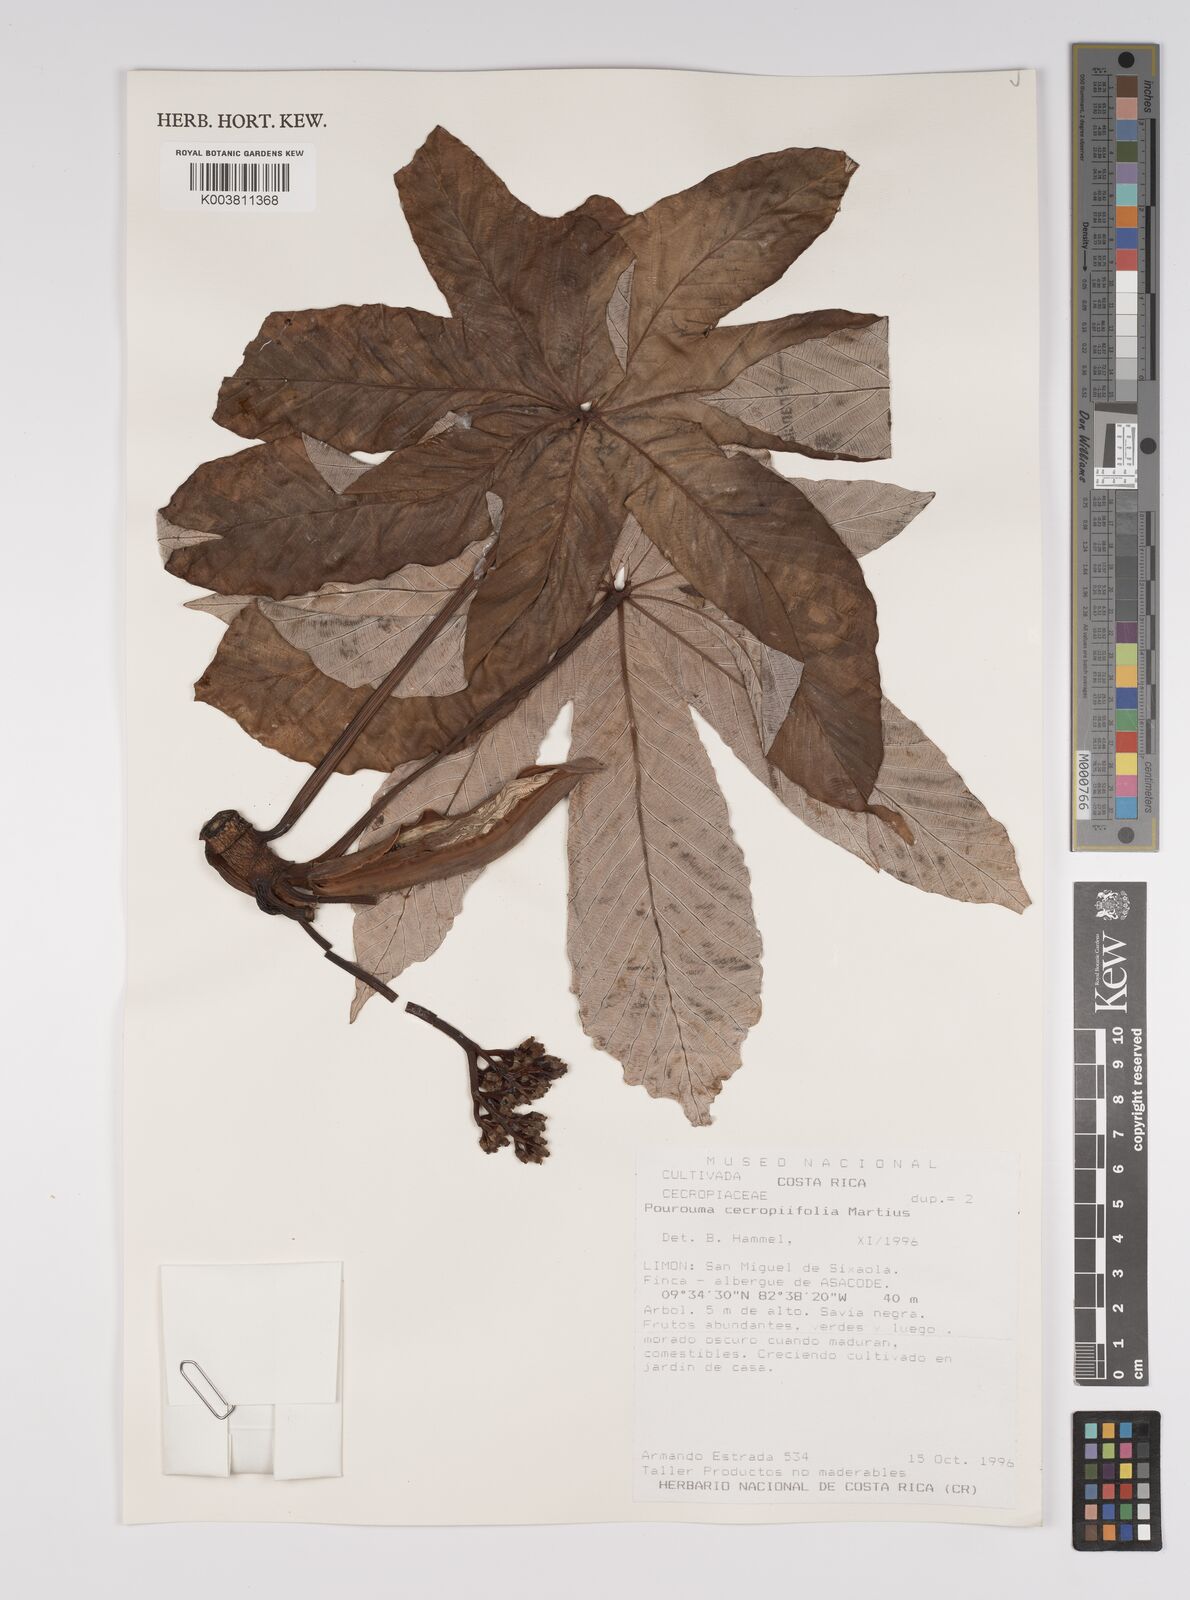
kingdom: Plantae
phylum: Tracheophyta
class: Magnoliopsida
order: Rosales
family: Urticaceae
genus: Pourouma
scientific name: Pourouma cecropiifolia
